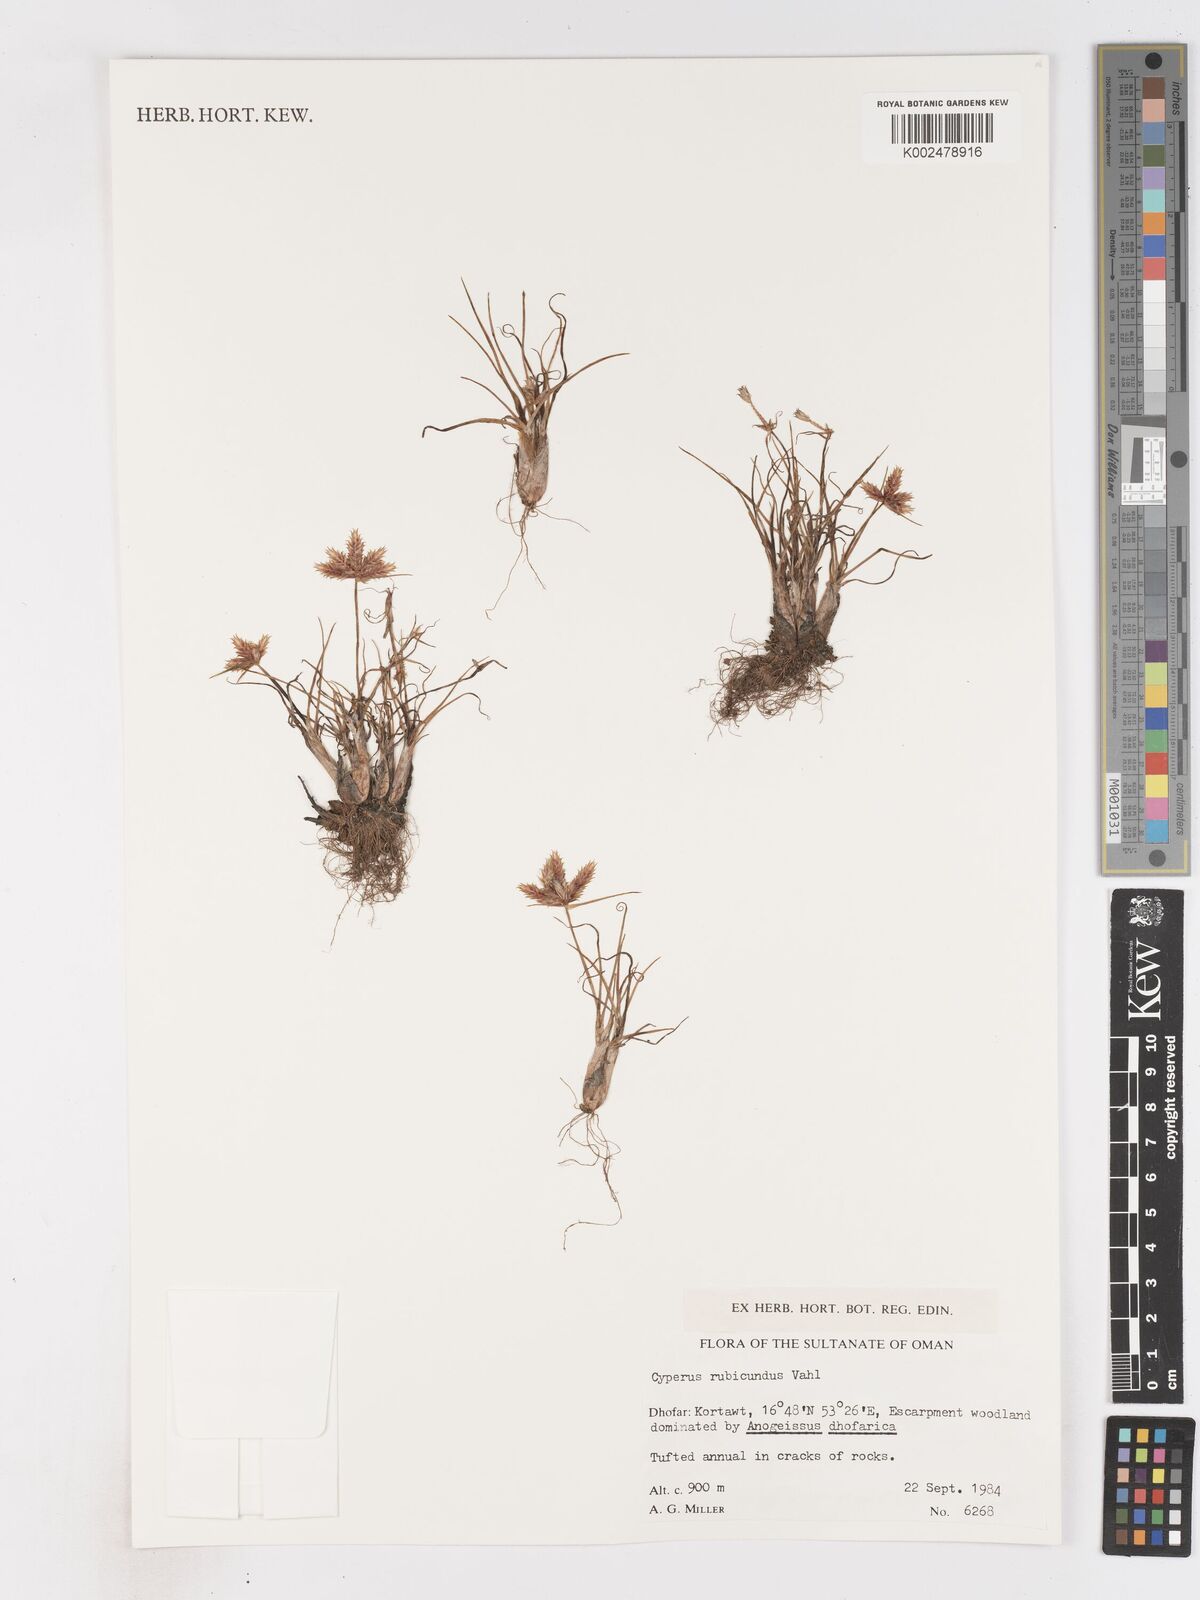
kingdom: Plantae
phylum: Tracheophyta
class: Liliopsida
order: Poales
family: Cyperaceae
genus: Cyperus
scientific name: Cyperus rubicundus
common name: Coco-grass
